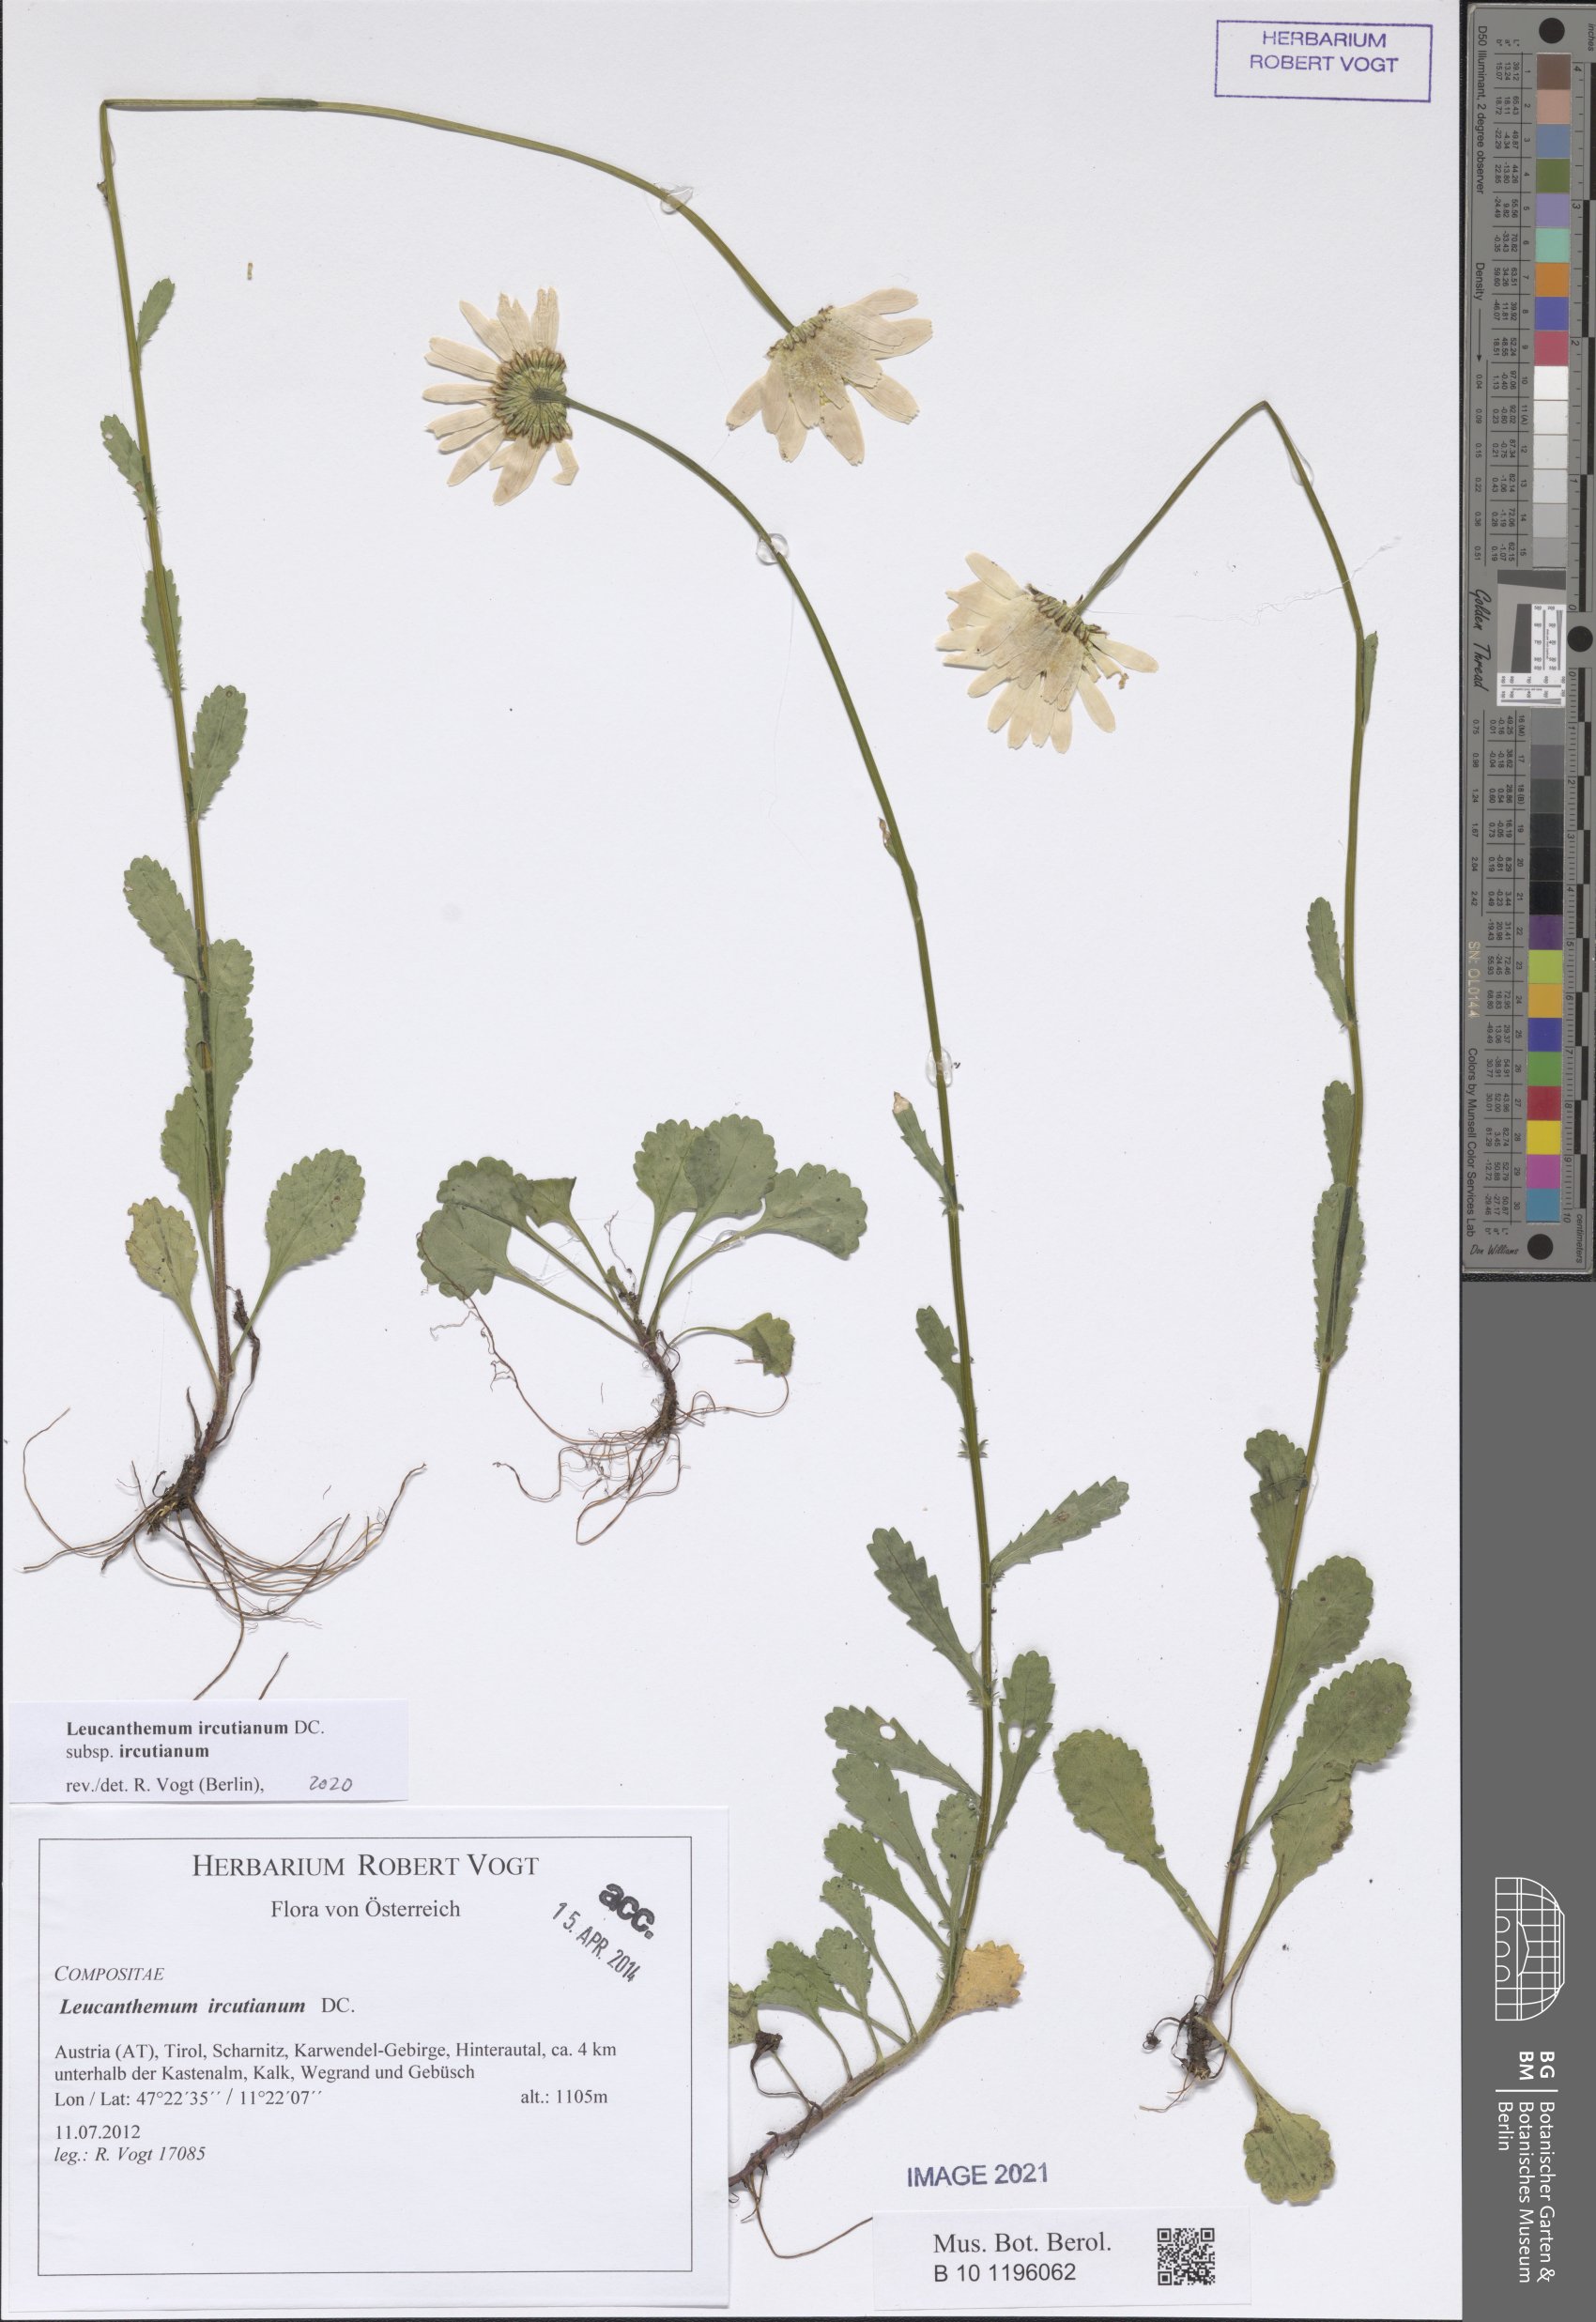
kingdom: Plantae
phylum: Tracheophyta
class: Magnoliopsida
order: Asterales
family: Asteraceae
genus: Leucanthemum
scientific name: Leucanthemum ircutianum
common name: Daisy
